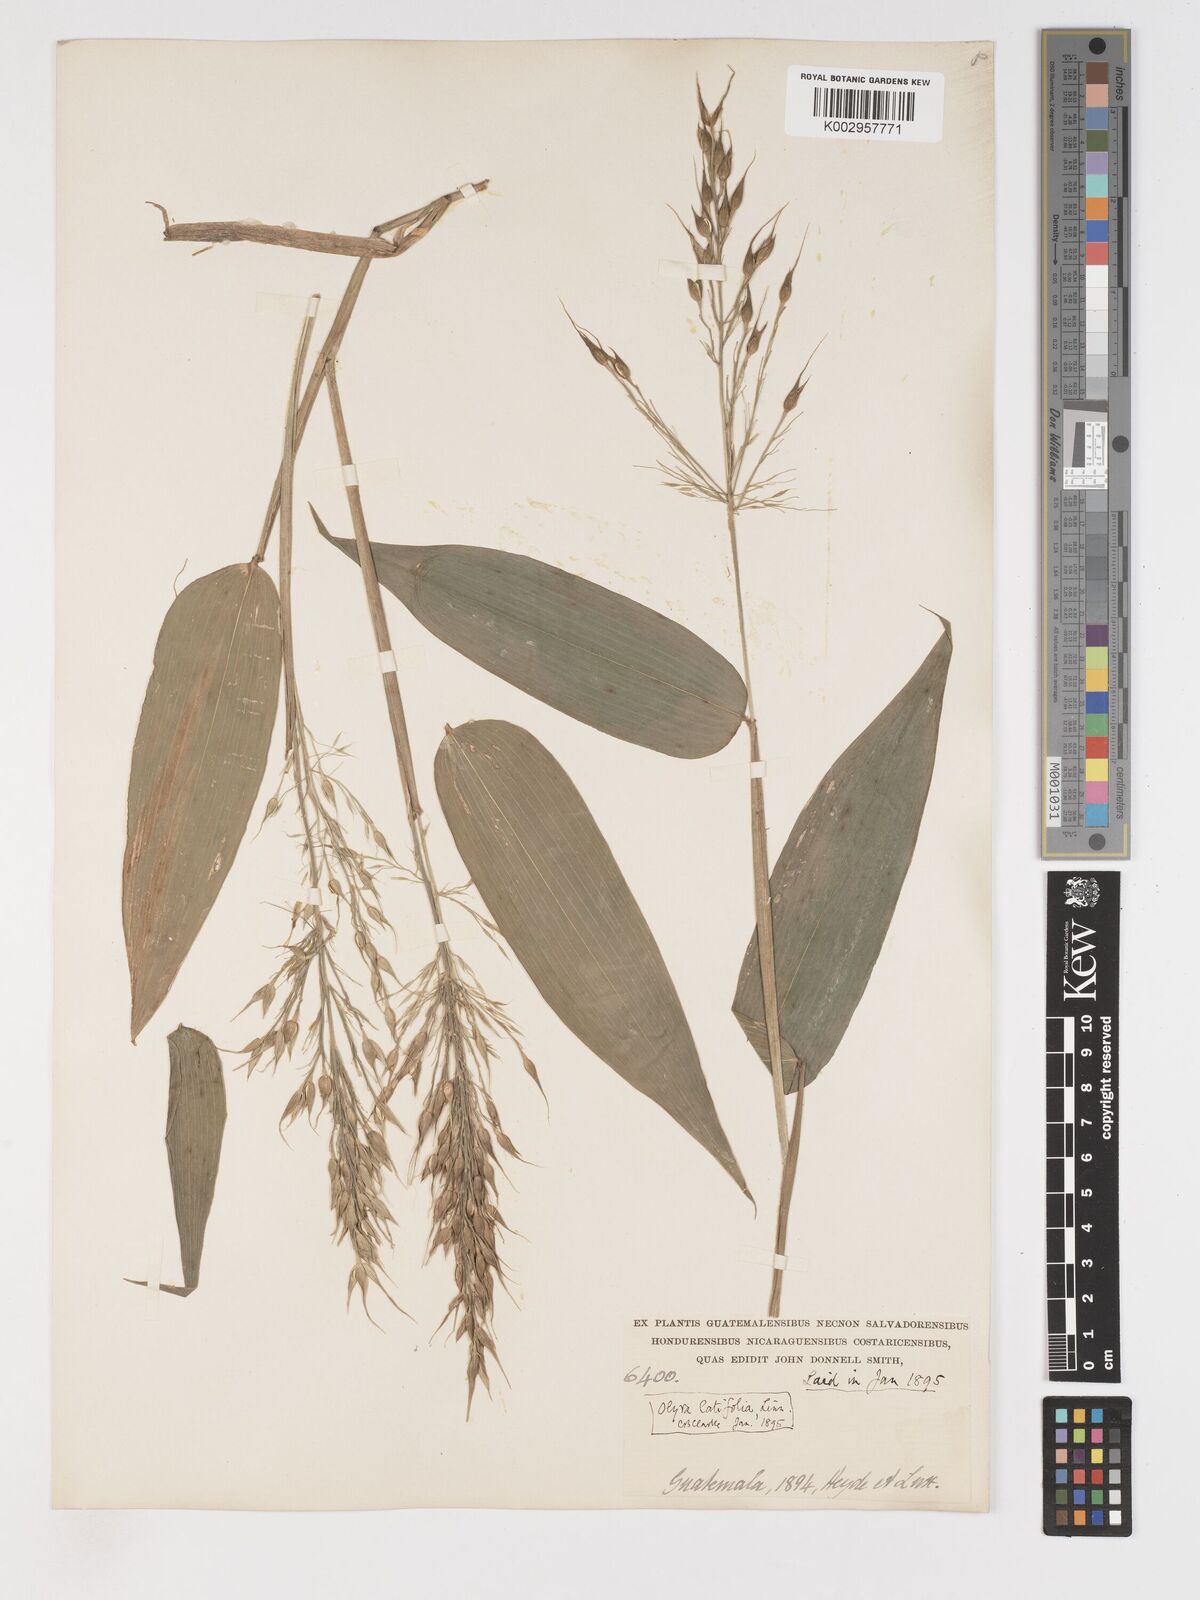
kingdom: Plantae
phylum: Tracheophyta
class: Liliopsida
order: Poales
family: Poaceae
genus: Olyra
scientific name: Olyra latifolia
